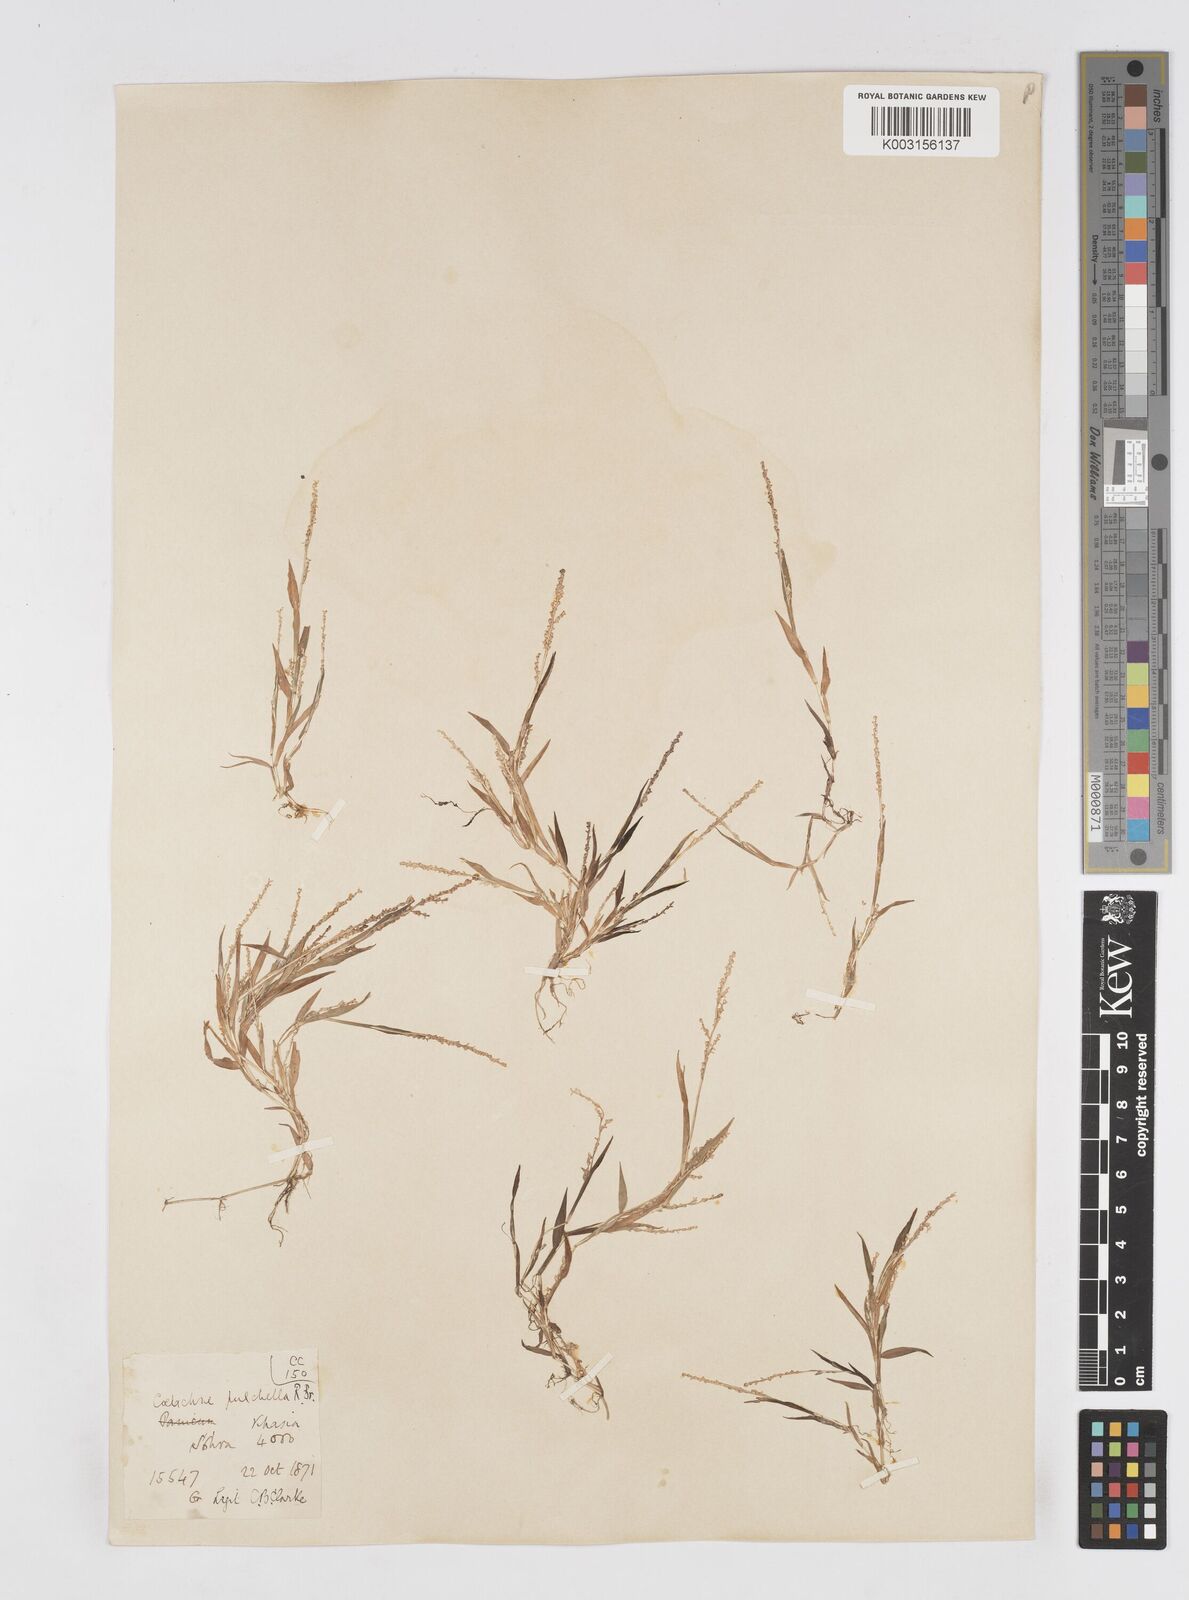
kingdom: Plantae
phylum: Tracheophyta
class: Liliopsida
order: Poales
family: Poaceae
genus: Coelachne
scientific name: Coelachne simpliciuscula
